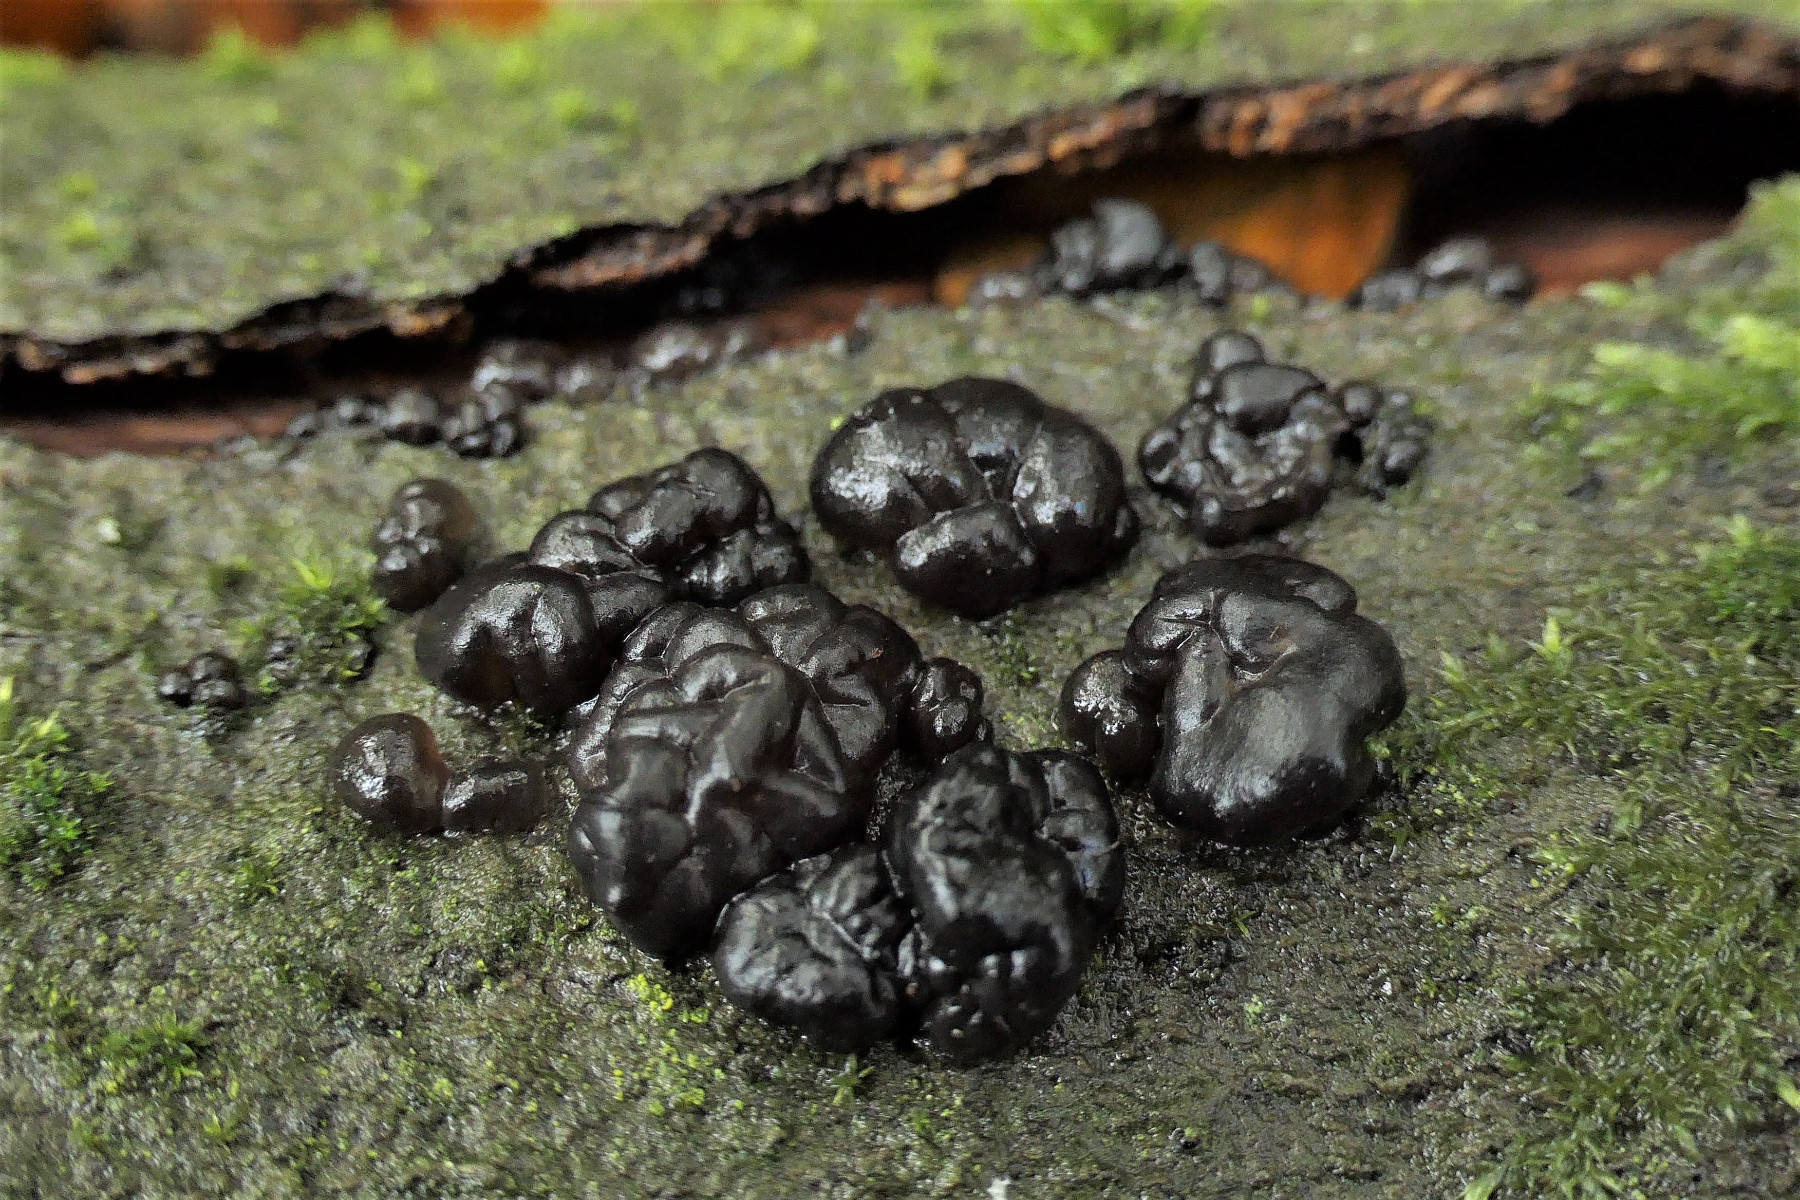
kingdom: Fungi
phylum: Basidiomycota
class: Agaricomycetes
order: Auriculariales
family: Auriculariaceae
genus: Exidia
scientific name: Exidia nigricans
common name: almindelig bævretop
